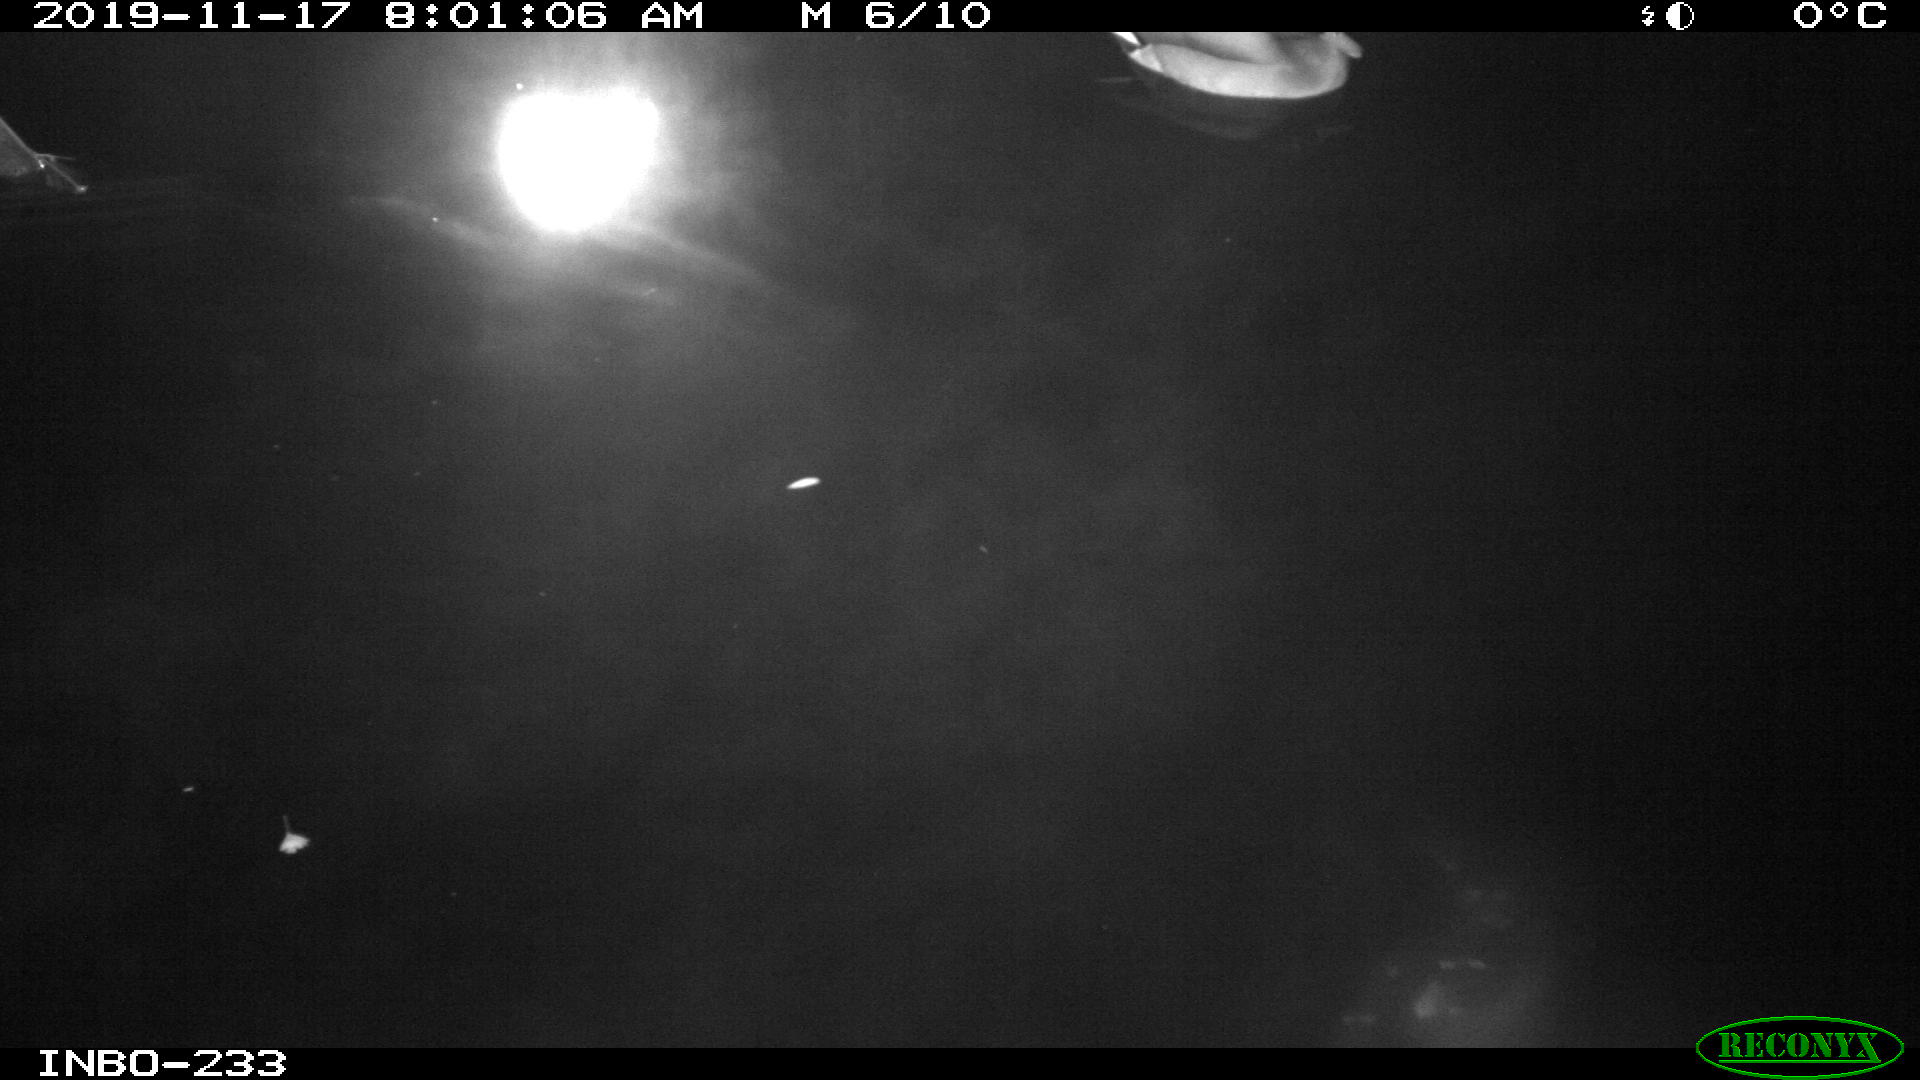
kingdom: Animalia
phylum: Chordata
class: Aves
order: Anseriformes
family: Anatidae
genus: Anas
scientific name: Anas platyrhynchos
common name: Mallard
